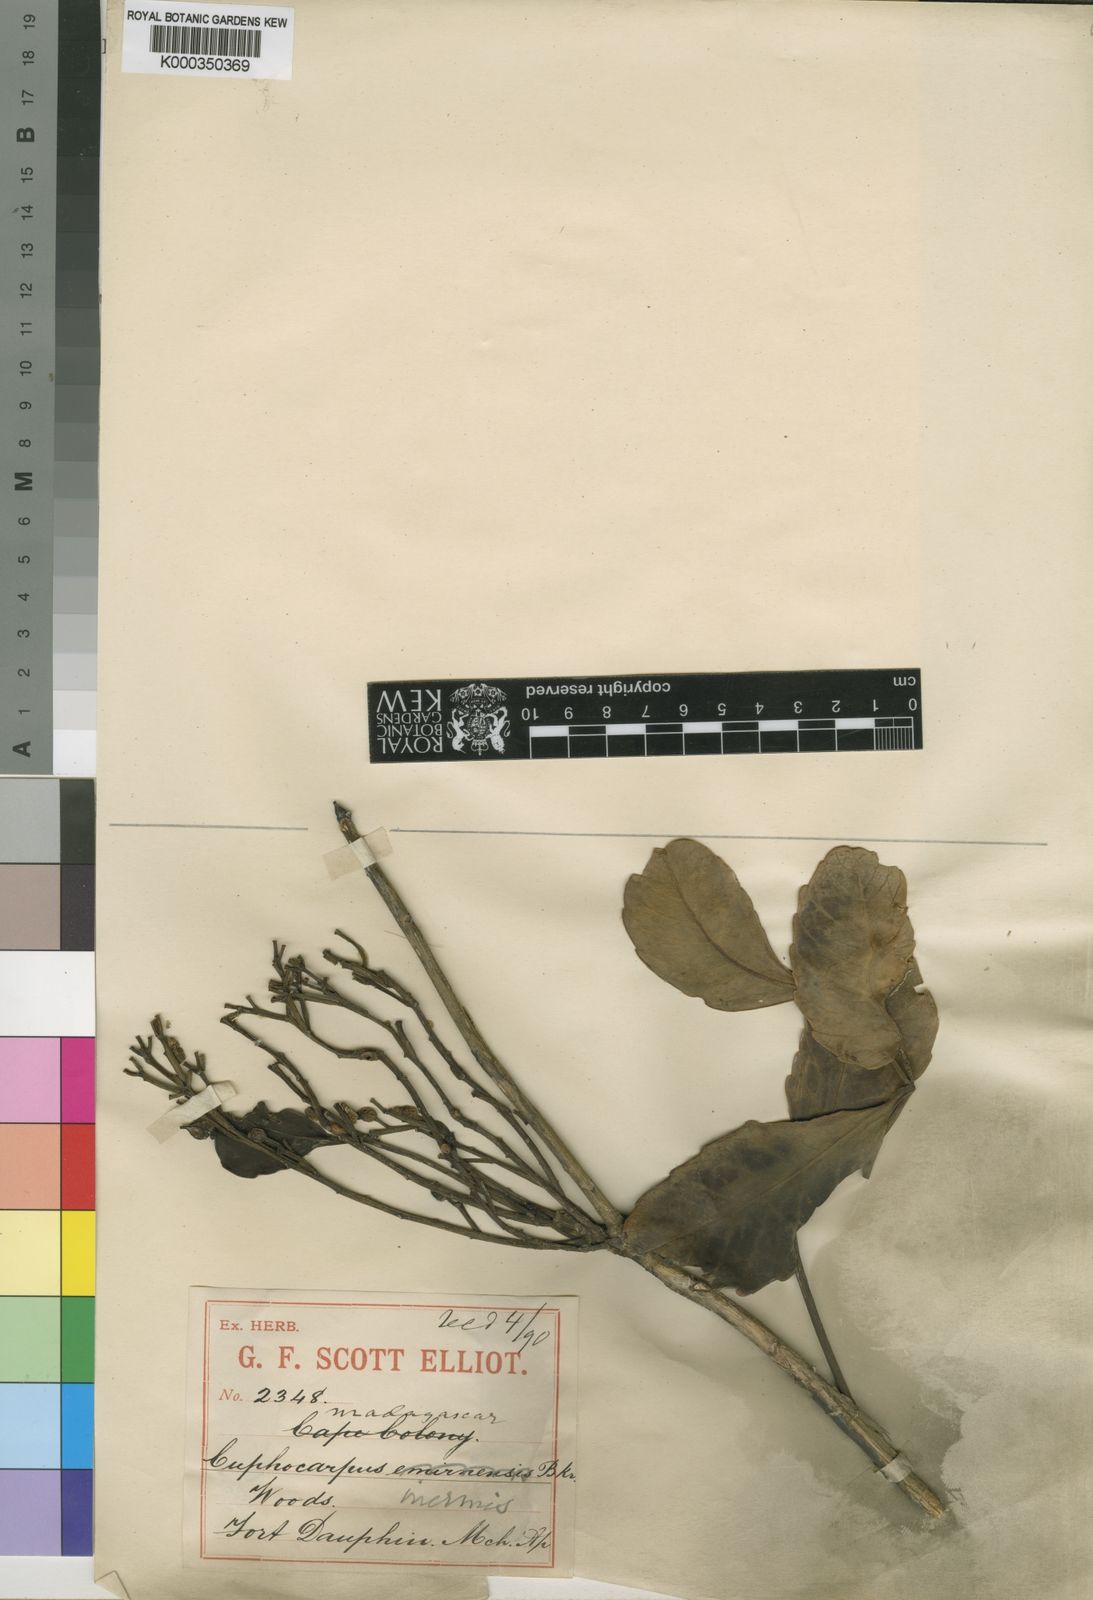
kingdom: Plantae
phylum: Tracheophyta
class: Magnoliopsida
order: Apiales
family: Araliaceae
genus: Polyscias
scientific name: Polyscias aculeata
